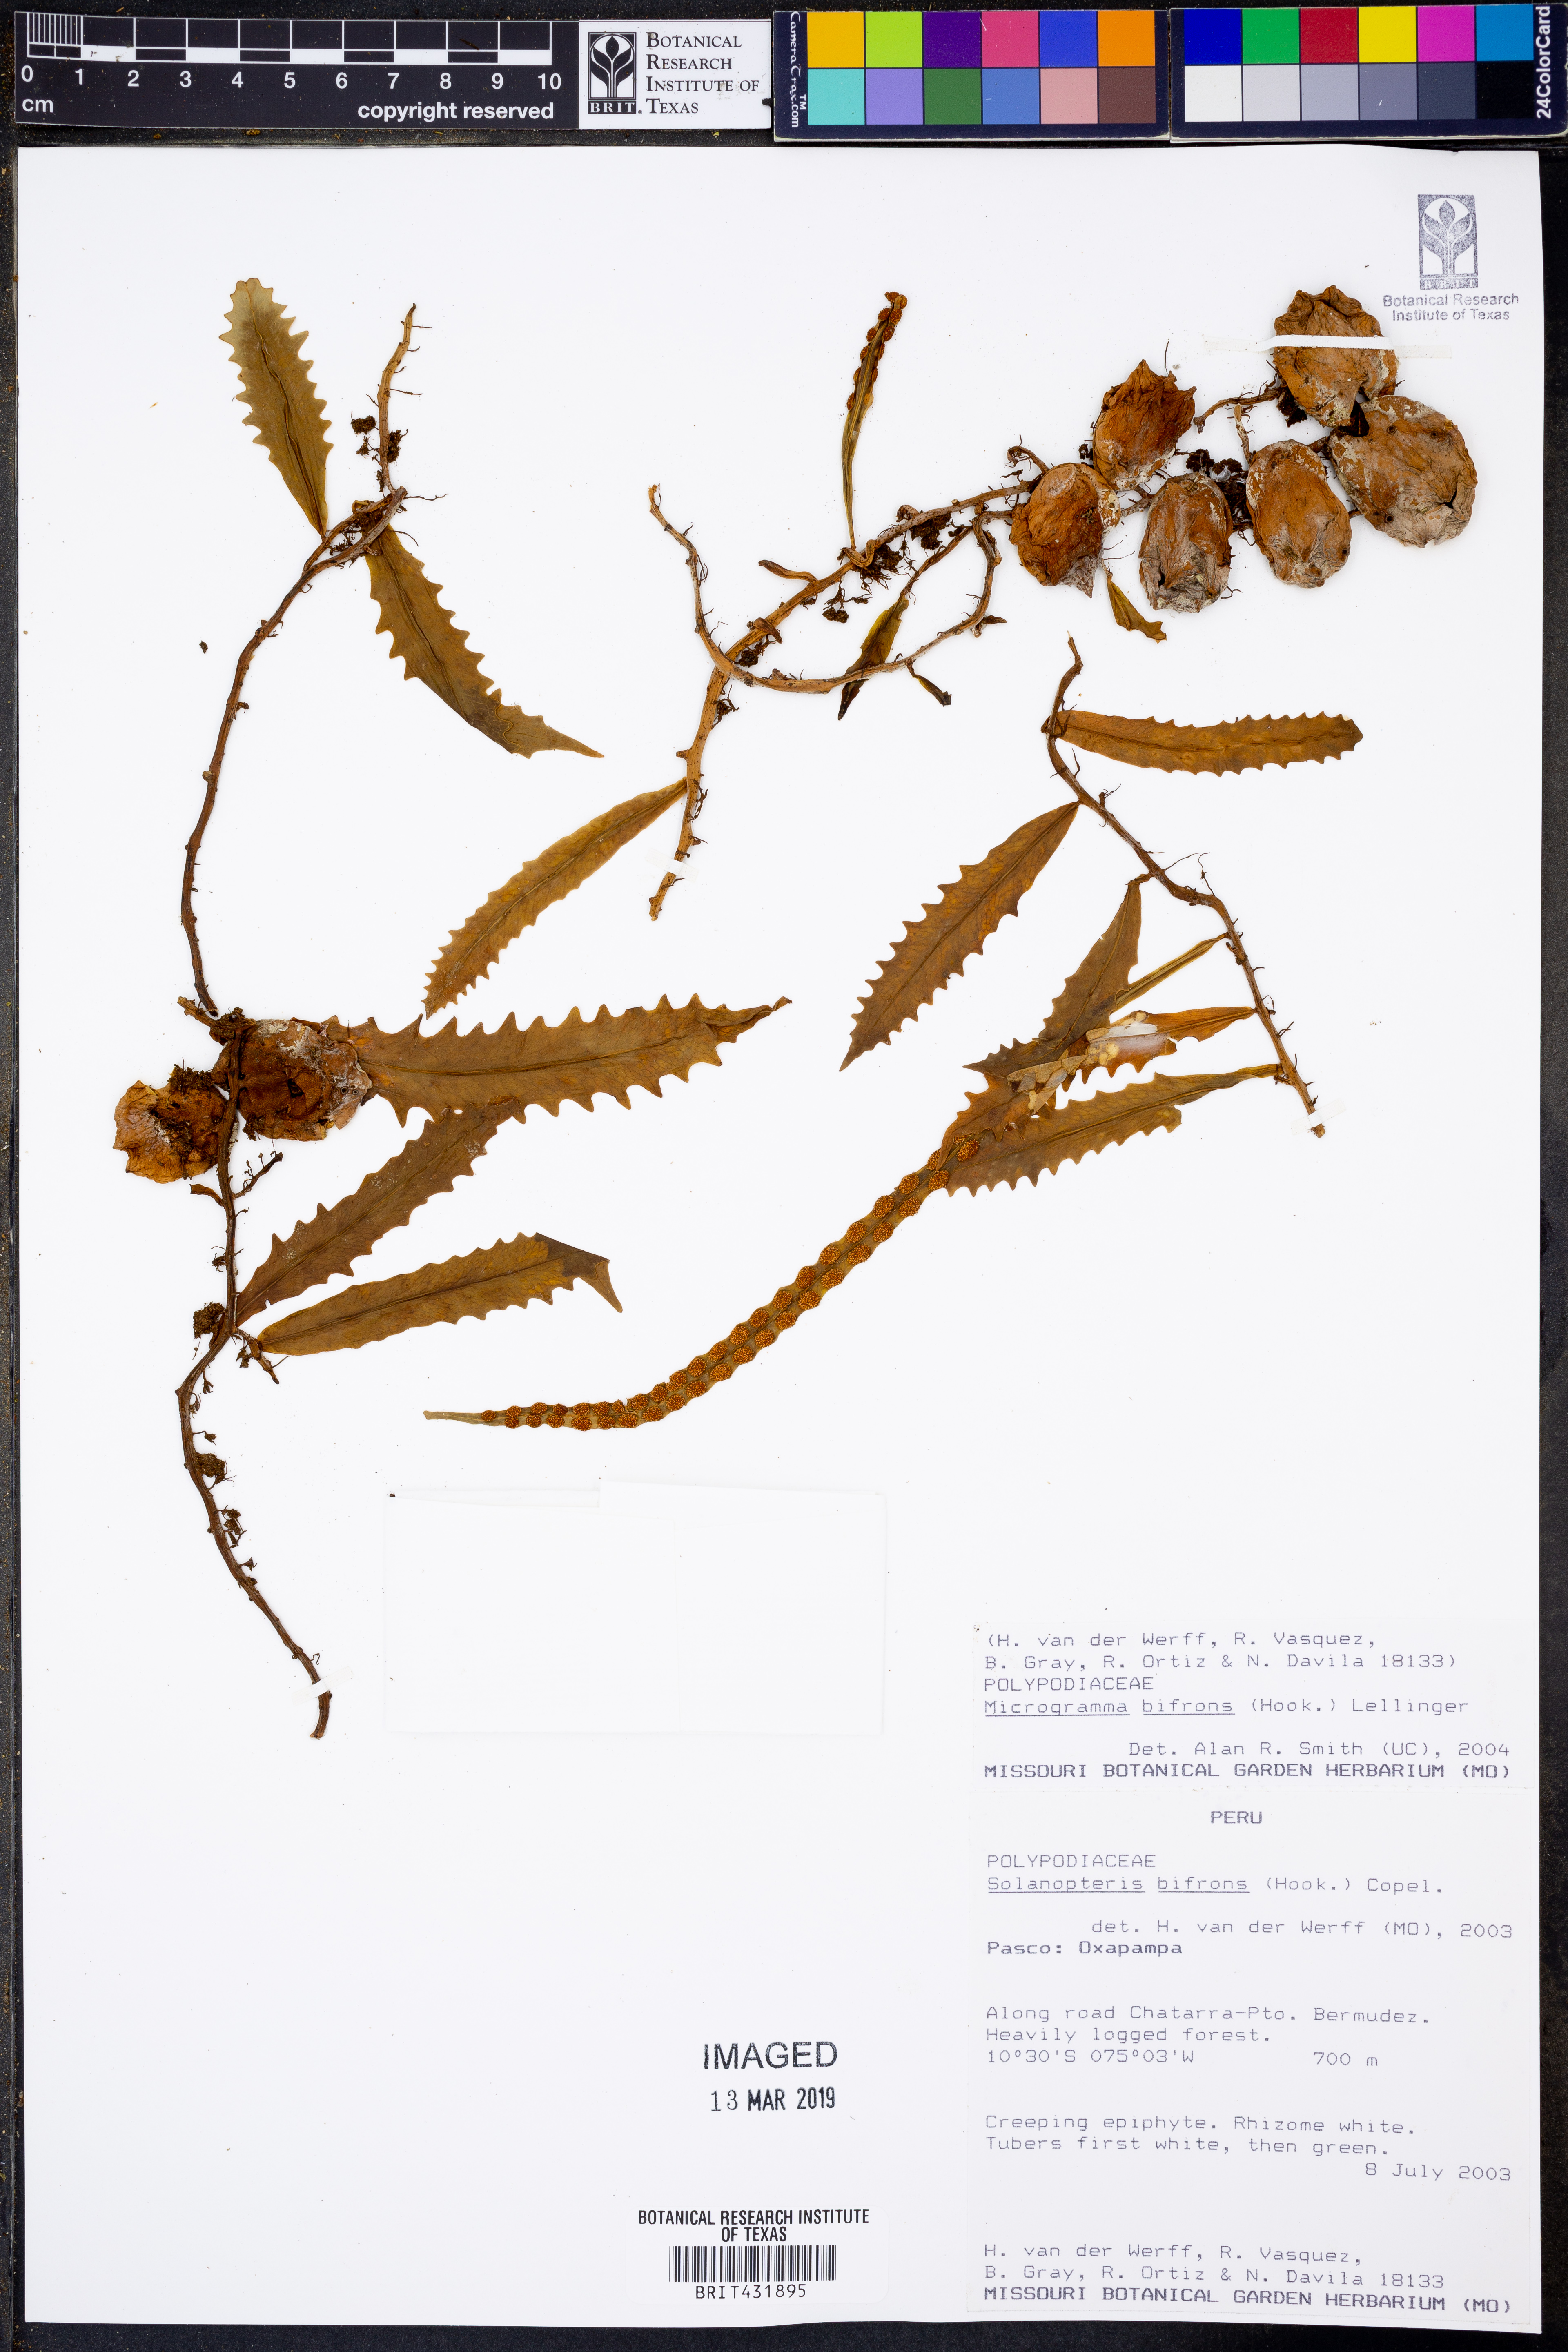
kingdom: Plantae
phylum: Tracheophyta
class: Polypodiopsida
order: Polypodiales
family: Polypodiaceae
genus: Microgramma
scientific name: Microgramma bifrons
